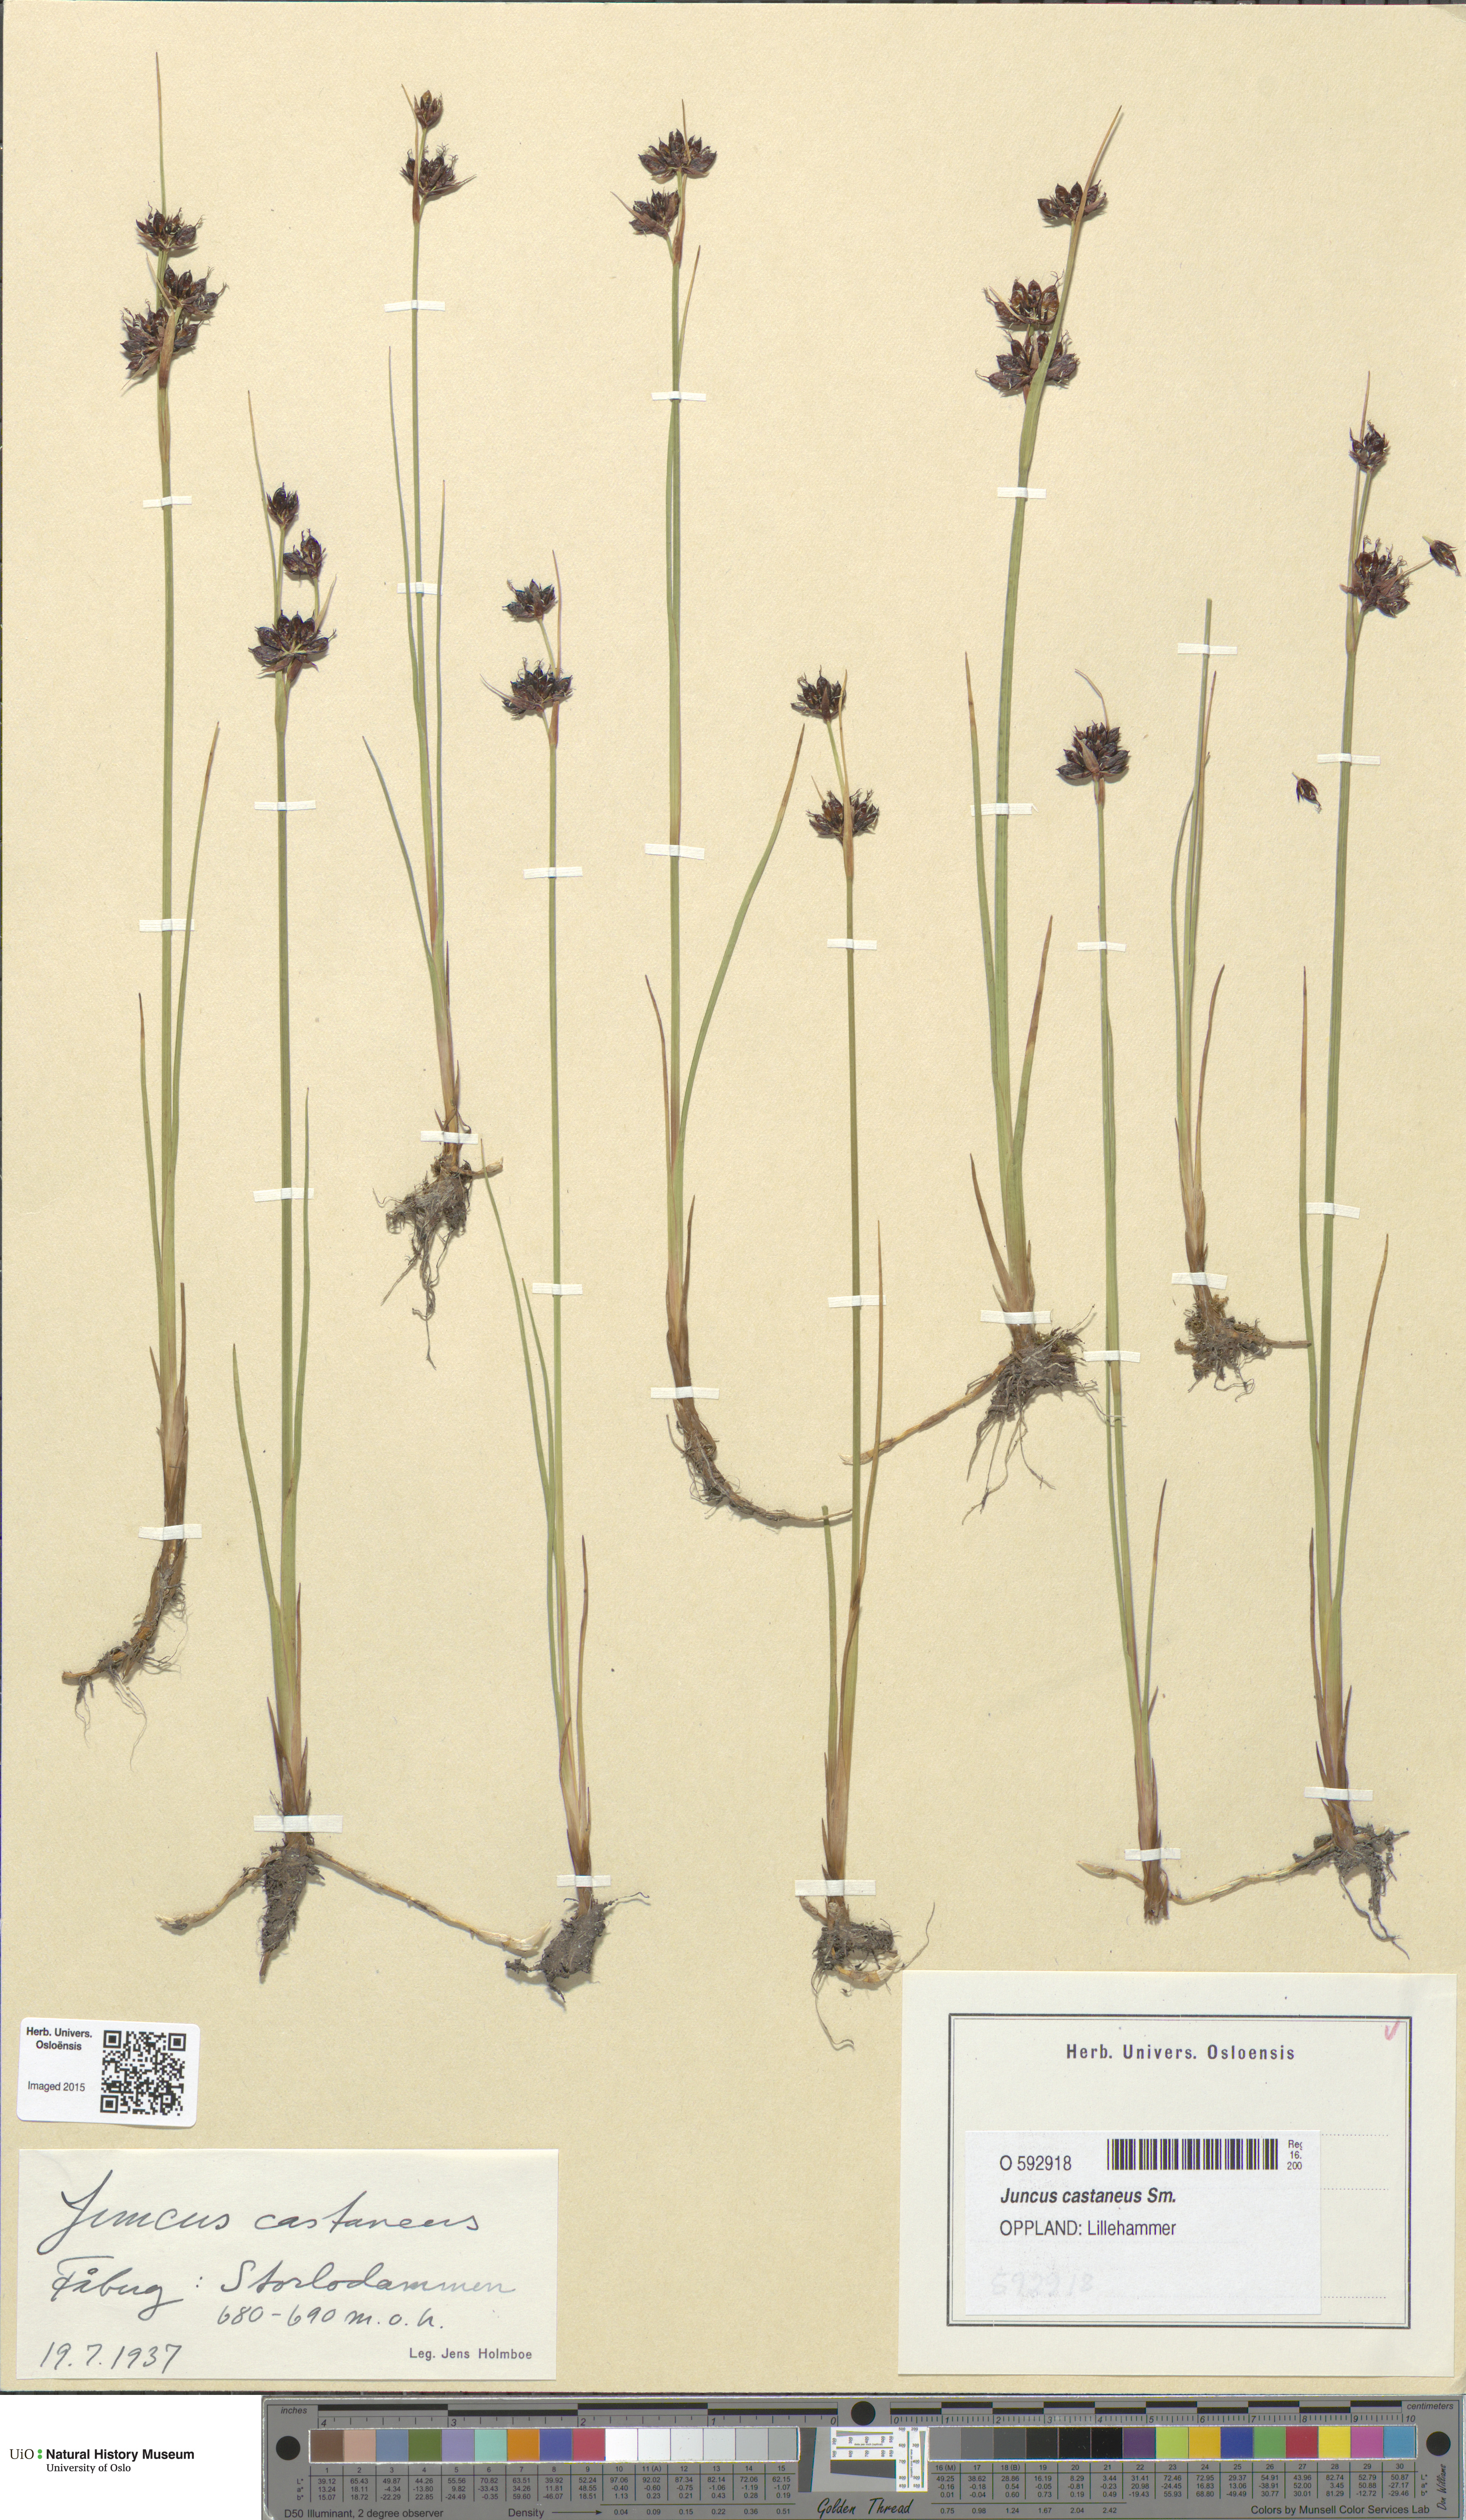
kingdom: Plantae
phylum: Tracheophyta
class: Liliopsida
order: Poales
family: Juncaceae
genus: Juncus
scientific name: Juncus castaneus
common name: Chestnut rush
